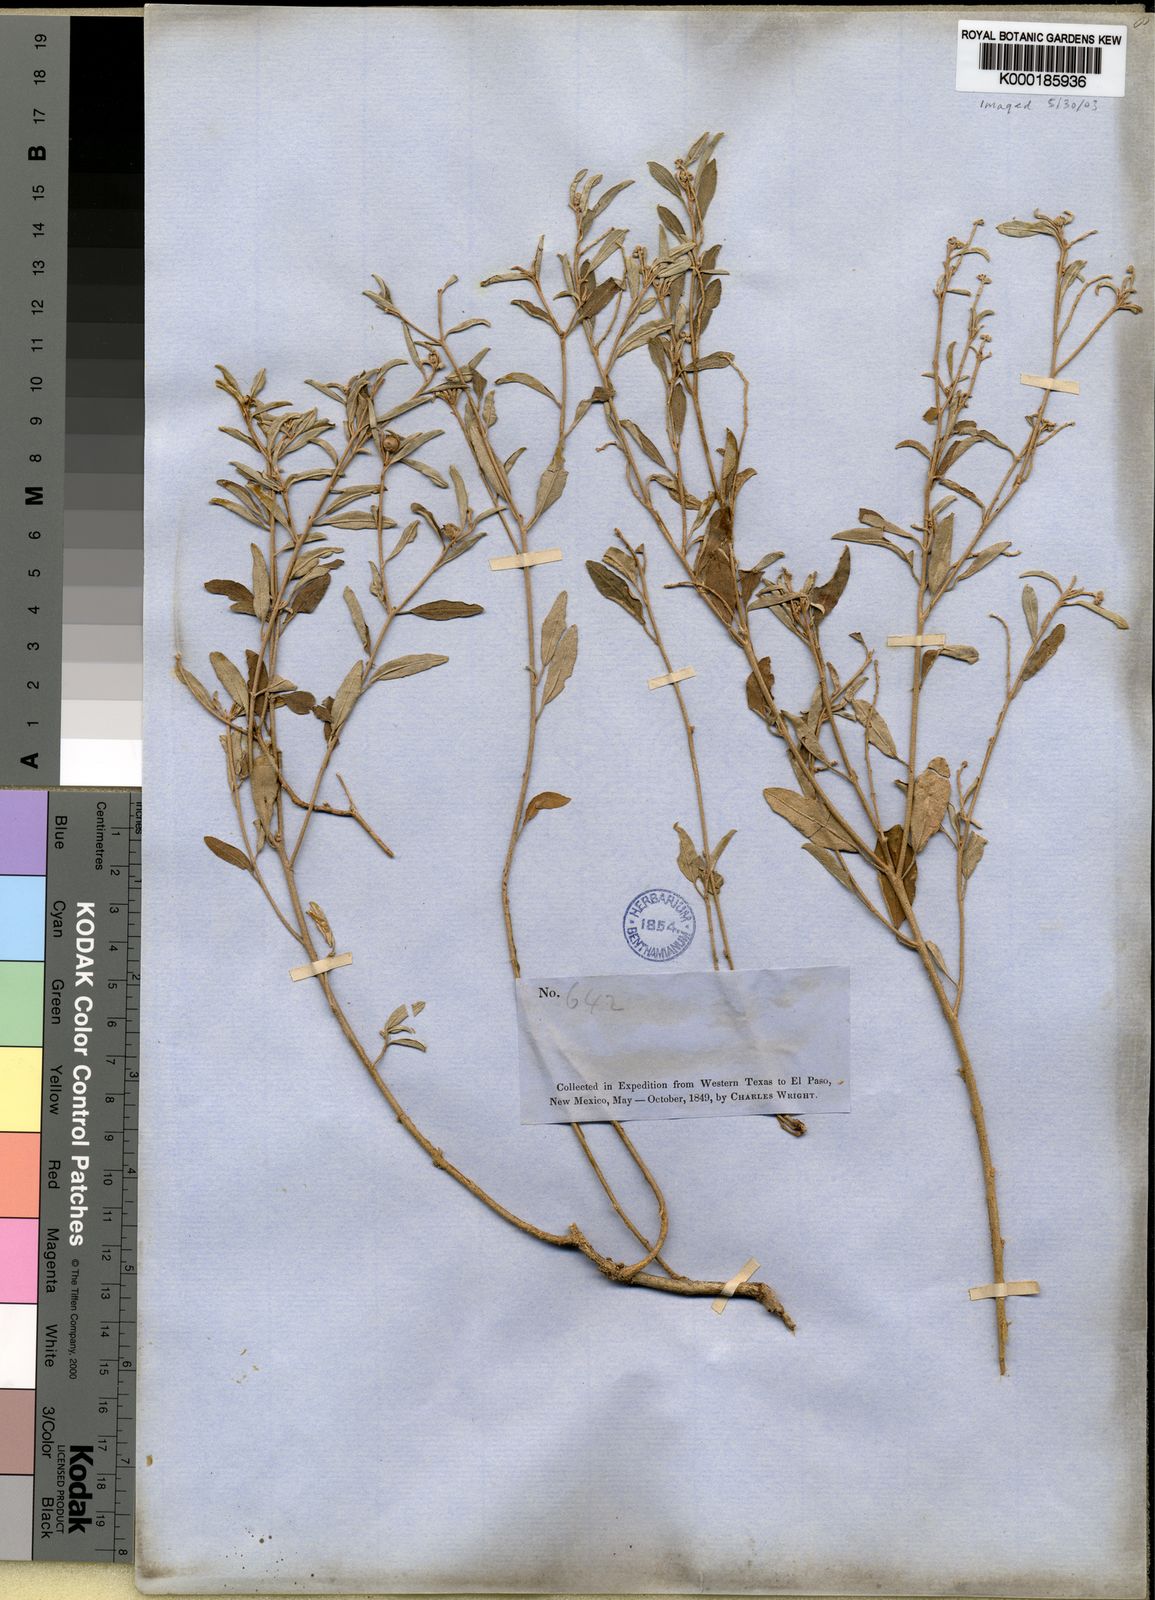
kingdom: Plantae
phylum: Tracheophyta
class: Magnoliopsida
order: Malpighiales
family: Euphorbiaceae
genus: Croton
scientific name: Croton dioicus
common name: Grassland croton
